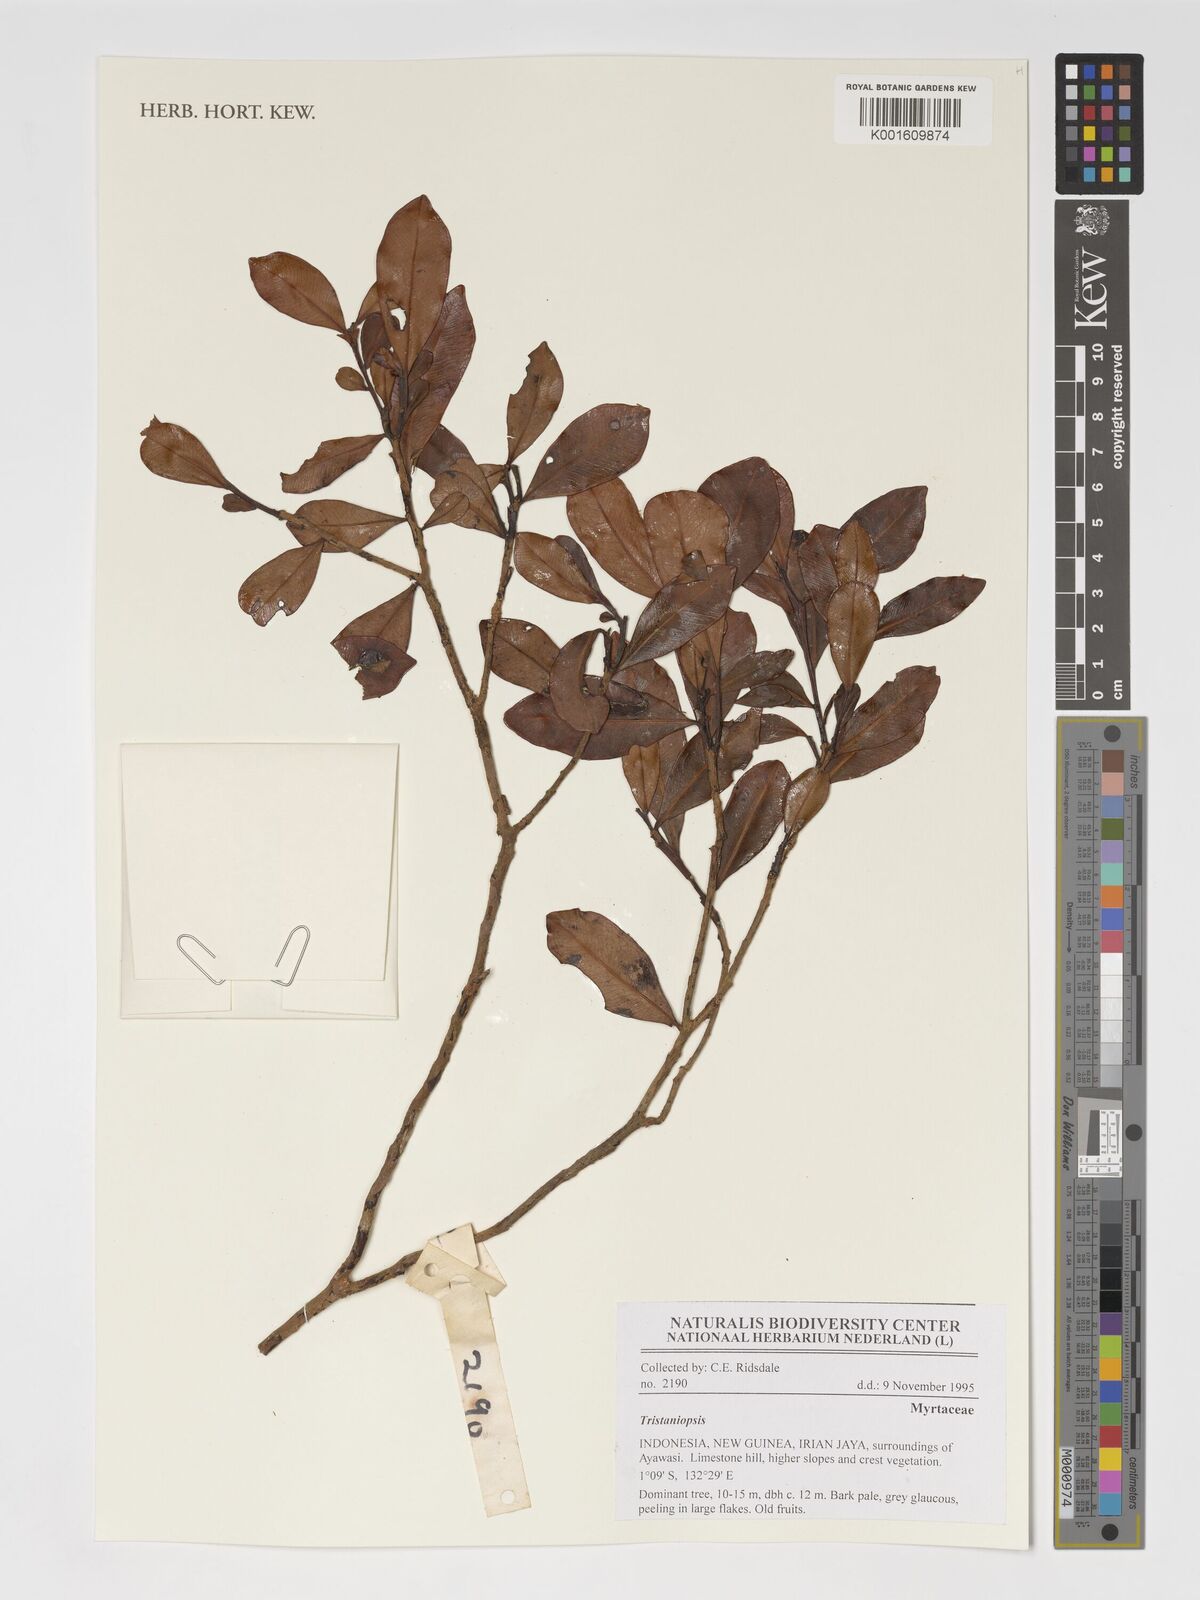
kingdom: Plantae
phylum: Tracheophyta
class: Magnoliopsida
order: Myrtales
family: Myrtaceae
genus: Tristaniopsis
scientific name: Tristaniopsis
